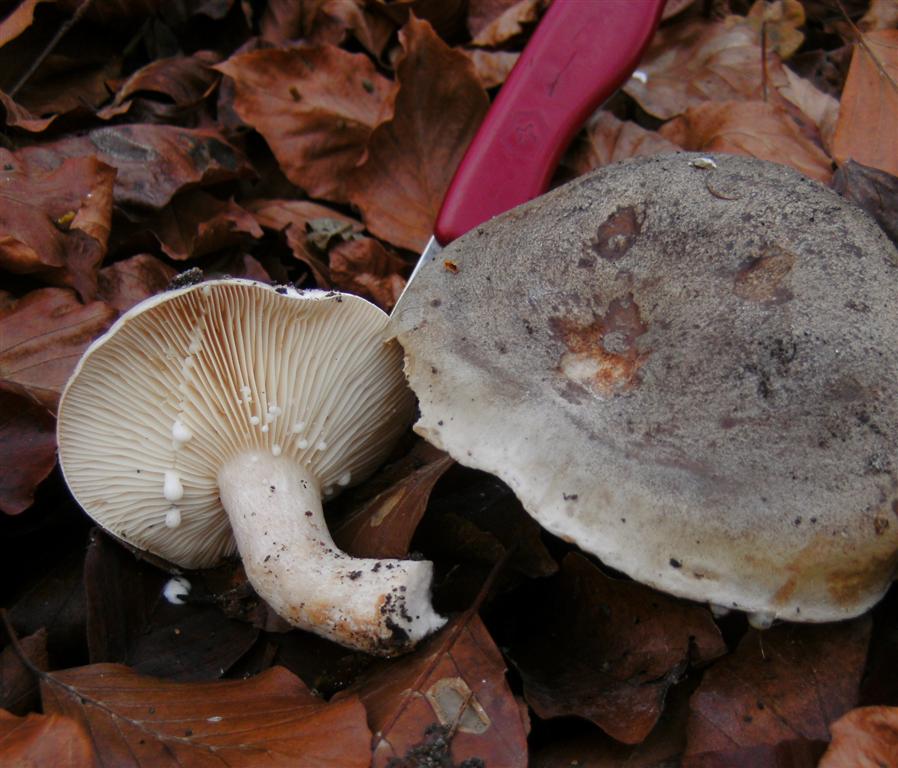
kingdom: Fungi
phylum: Basidiomycota
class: Agaricomycetes
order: Russulales
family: Russulaceae
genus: Lactarius
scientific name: Lactarius fluens
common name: lysrandet mælkehat
